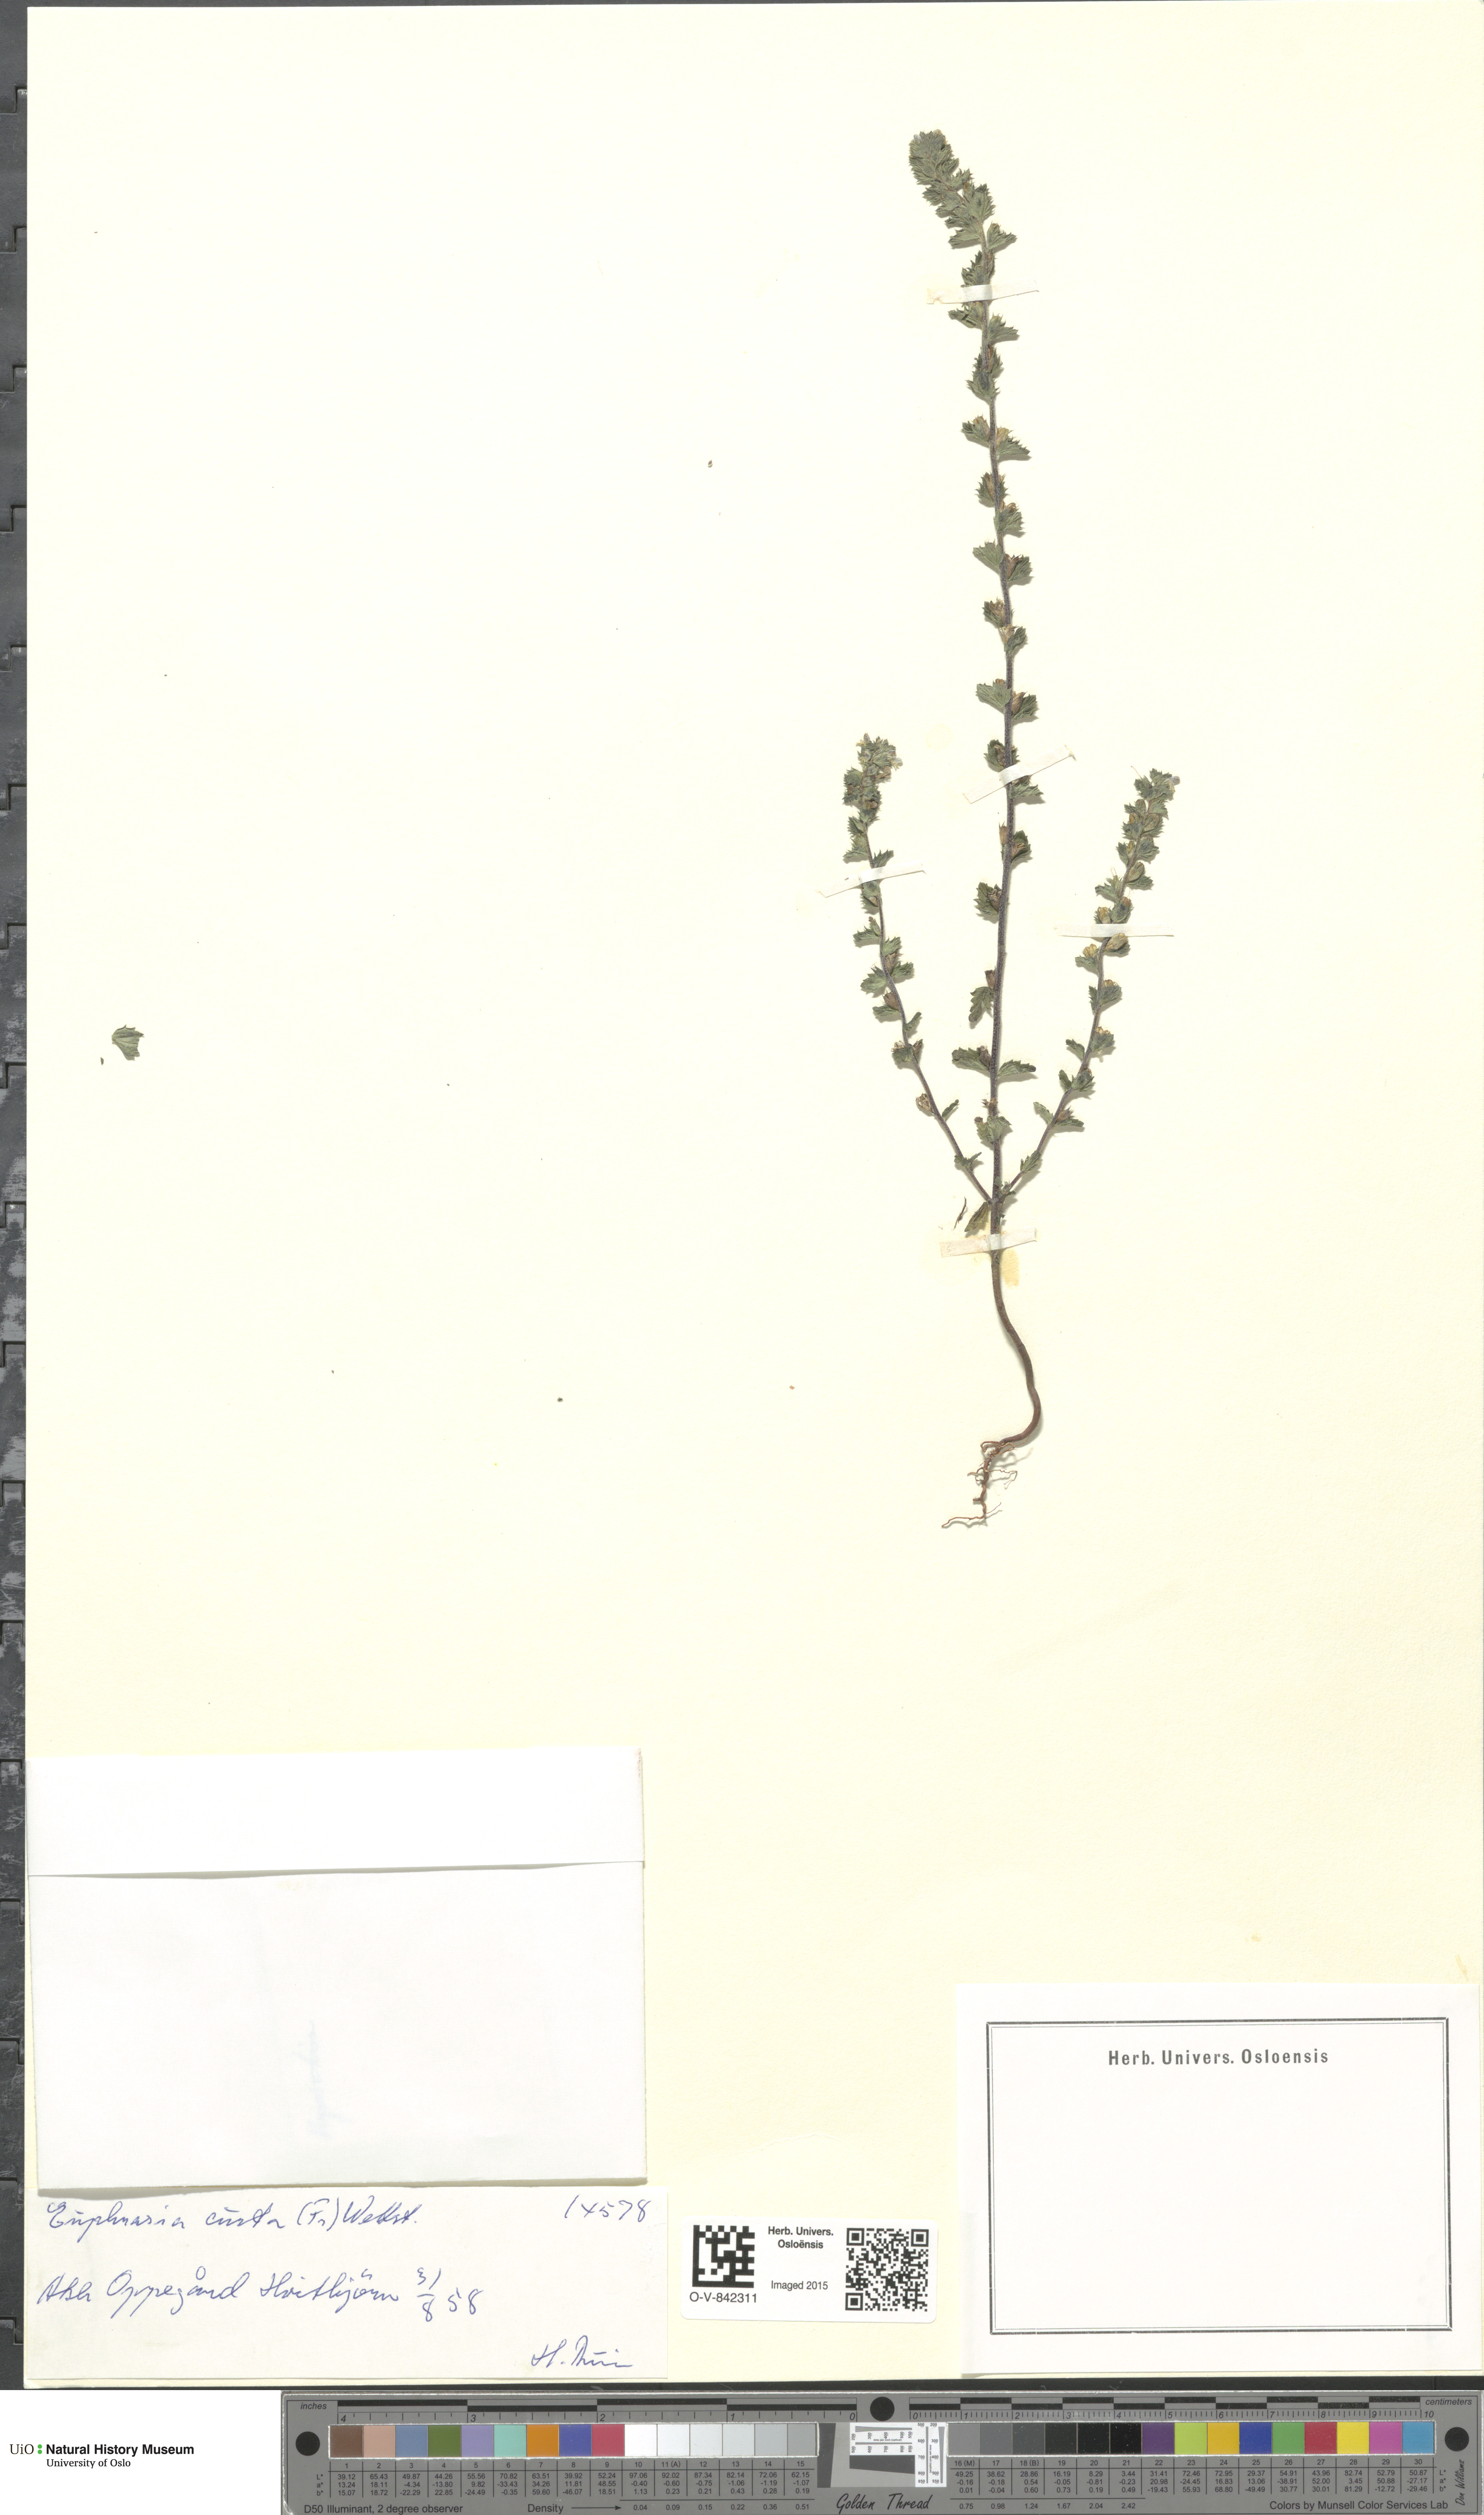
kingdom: Plantae
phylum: Tracheophyta
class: Magnoliopsida
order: Lamiales
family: Orobanchaceae
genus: Euphrasia
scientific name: Euphrasia micrantha
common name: Northern eyebright
